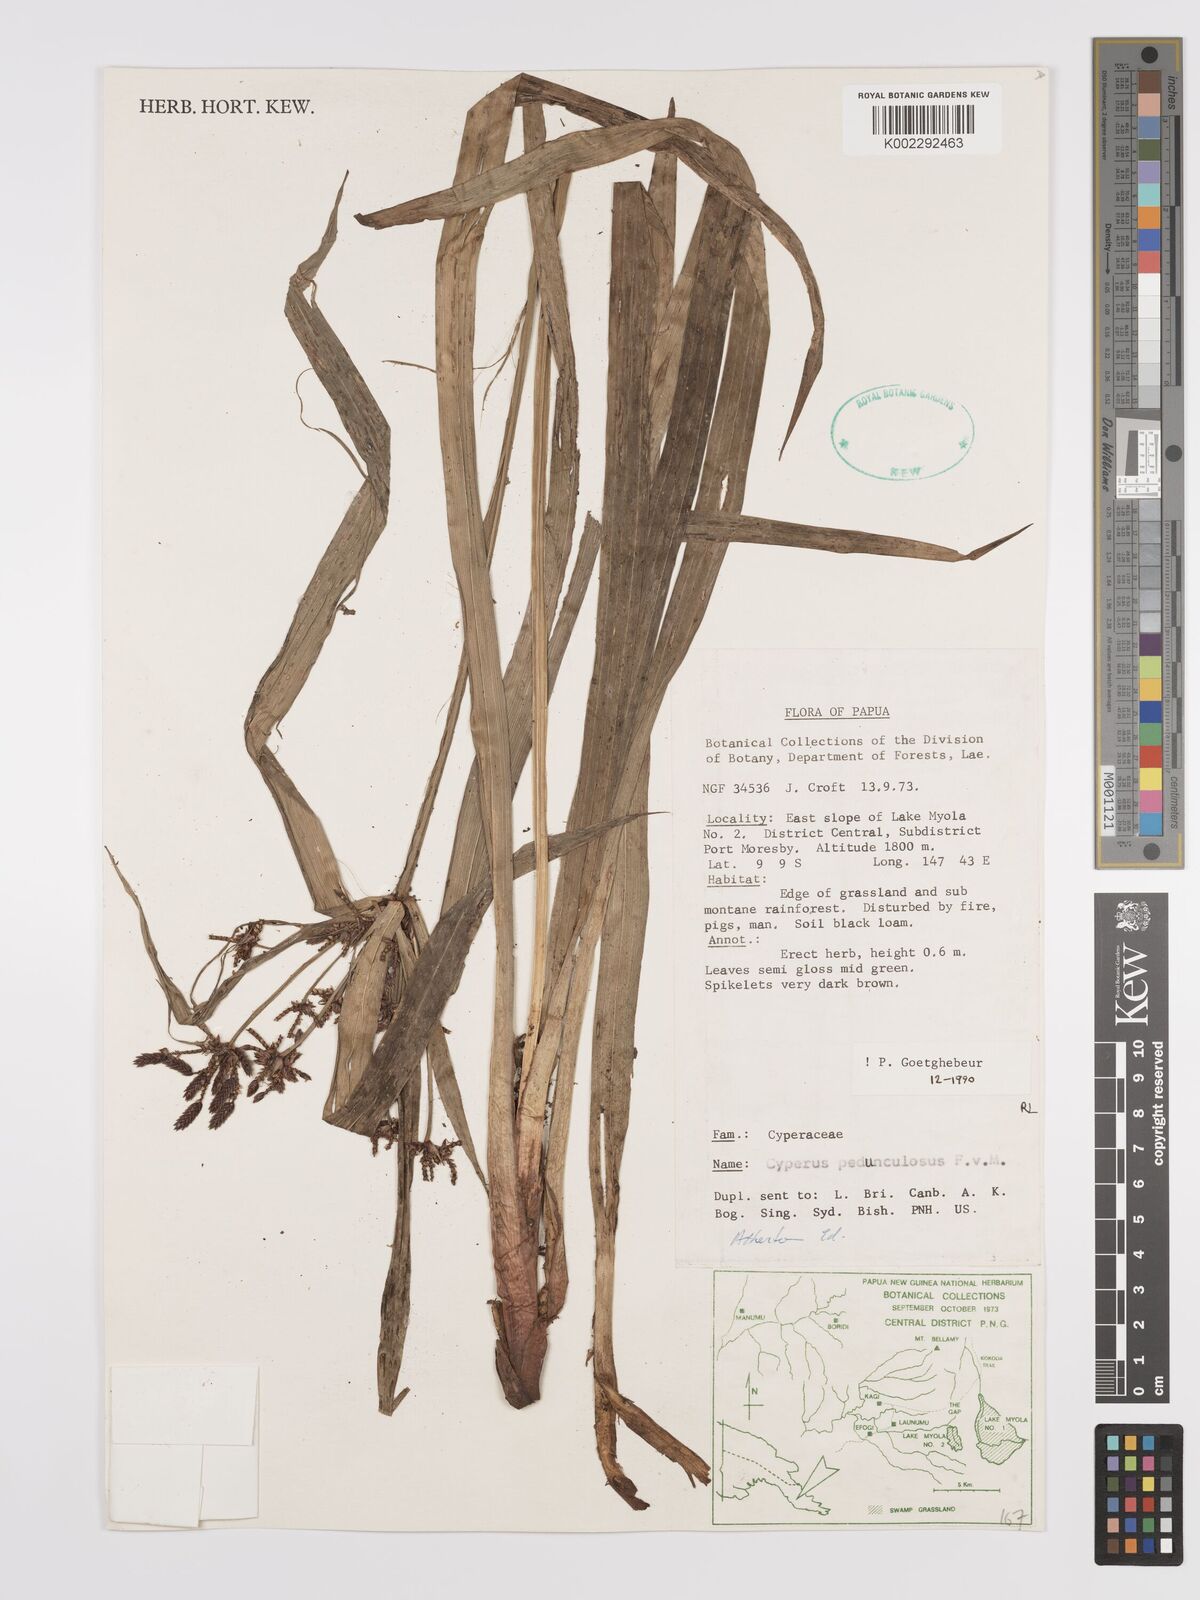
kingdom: Plantae
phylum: Tracheophyta
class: Liliopsida
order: Poales
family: Cyperaceae
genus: Cyperus
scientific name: Cyperus pedunculosus
